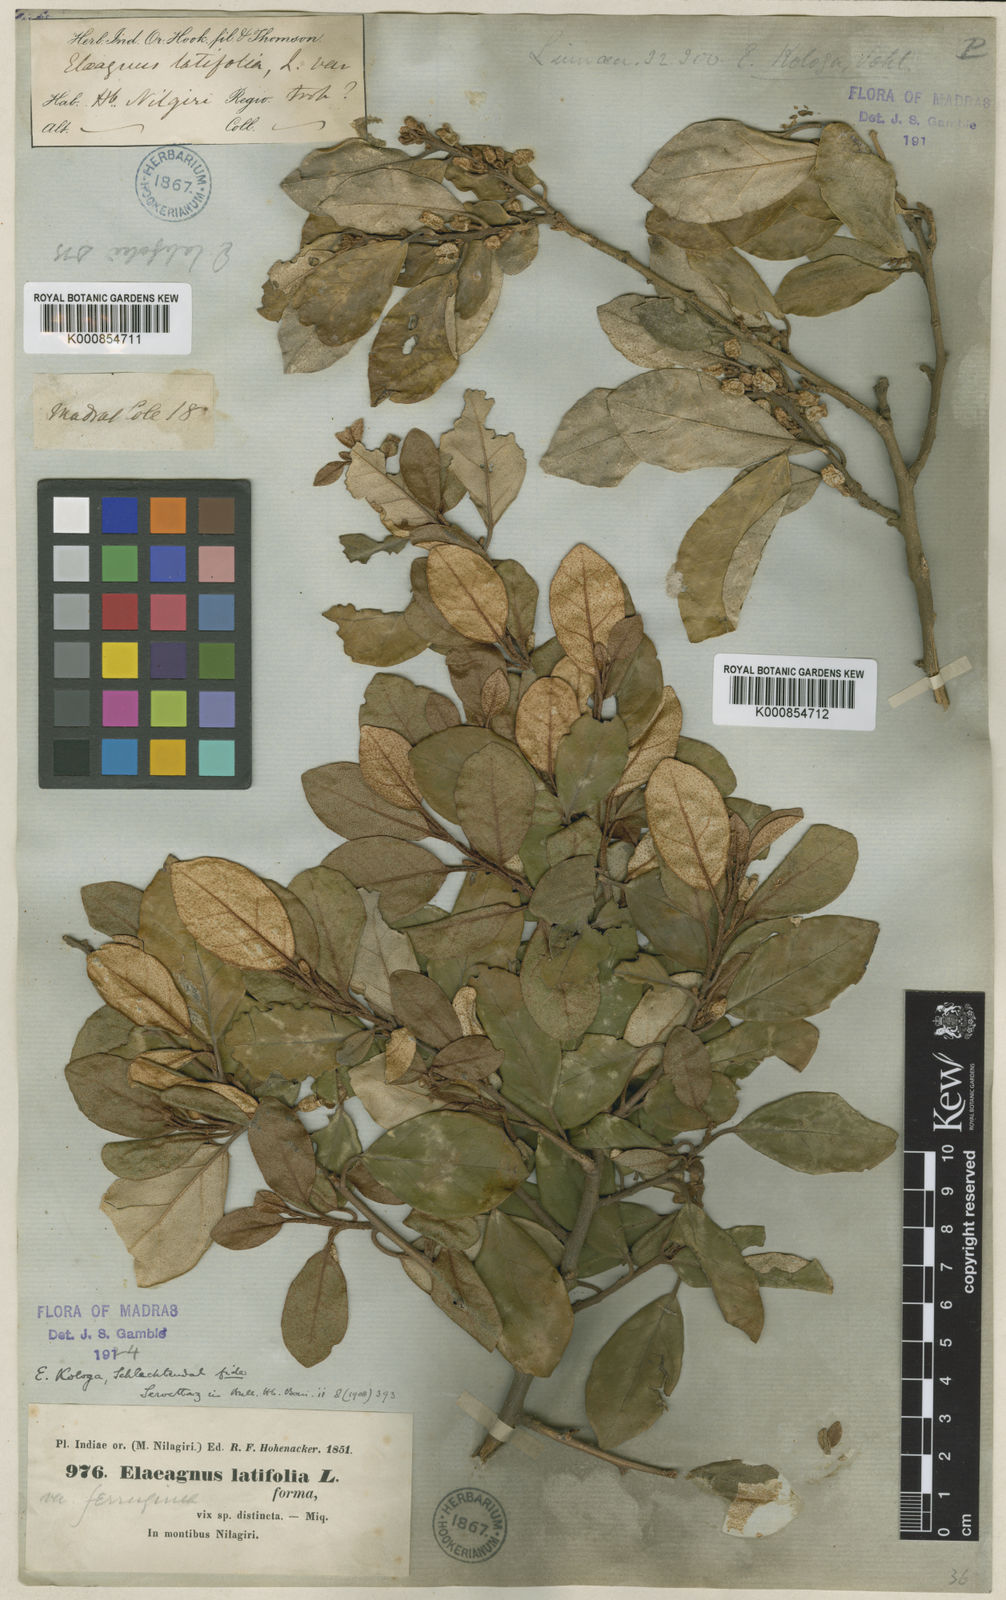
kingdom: Plantae
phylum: Tracheophyta
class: Magnoliopsida
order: Rosales
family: Elaeagnaceae
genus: Elaeagnus
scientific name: Elaeagnus latifolia
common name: Oleaster
